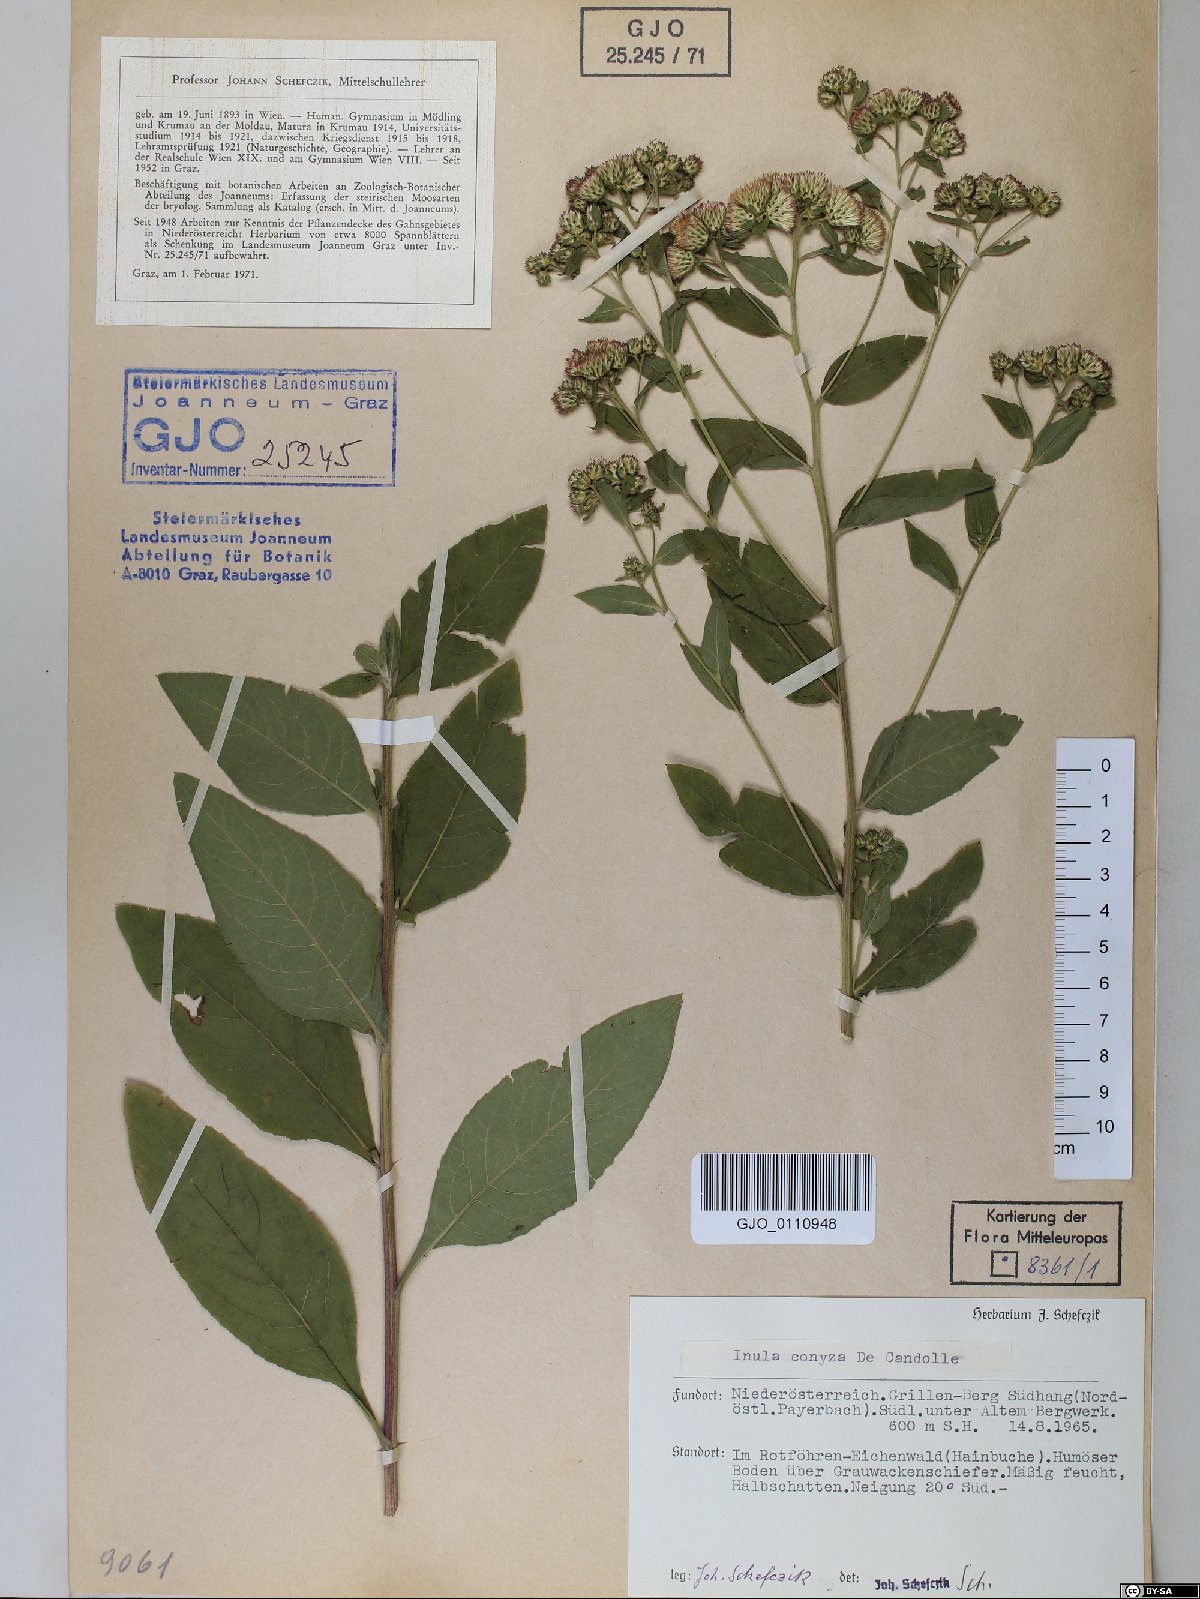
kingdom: Plantae
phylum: Tracheophyta
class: Magnoliopsida
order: Asterales
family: Asteraceae
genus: Pentanema
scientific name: Pentanema squarrosum
